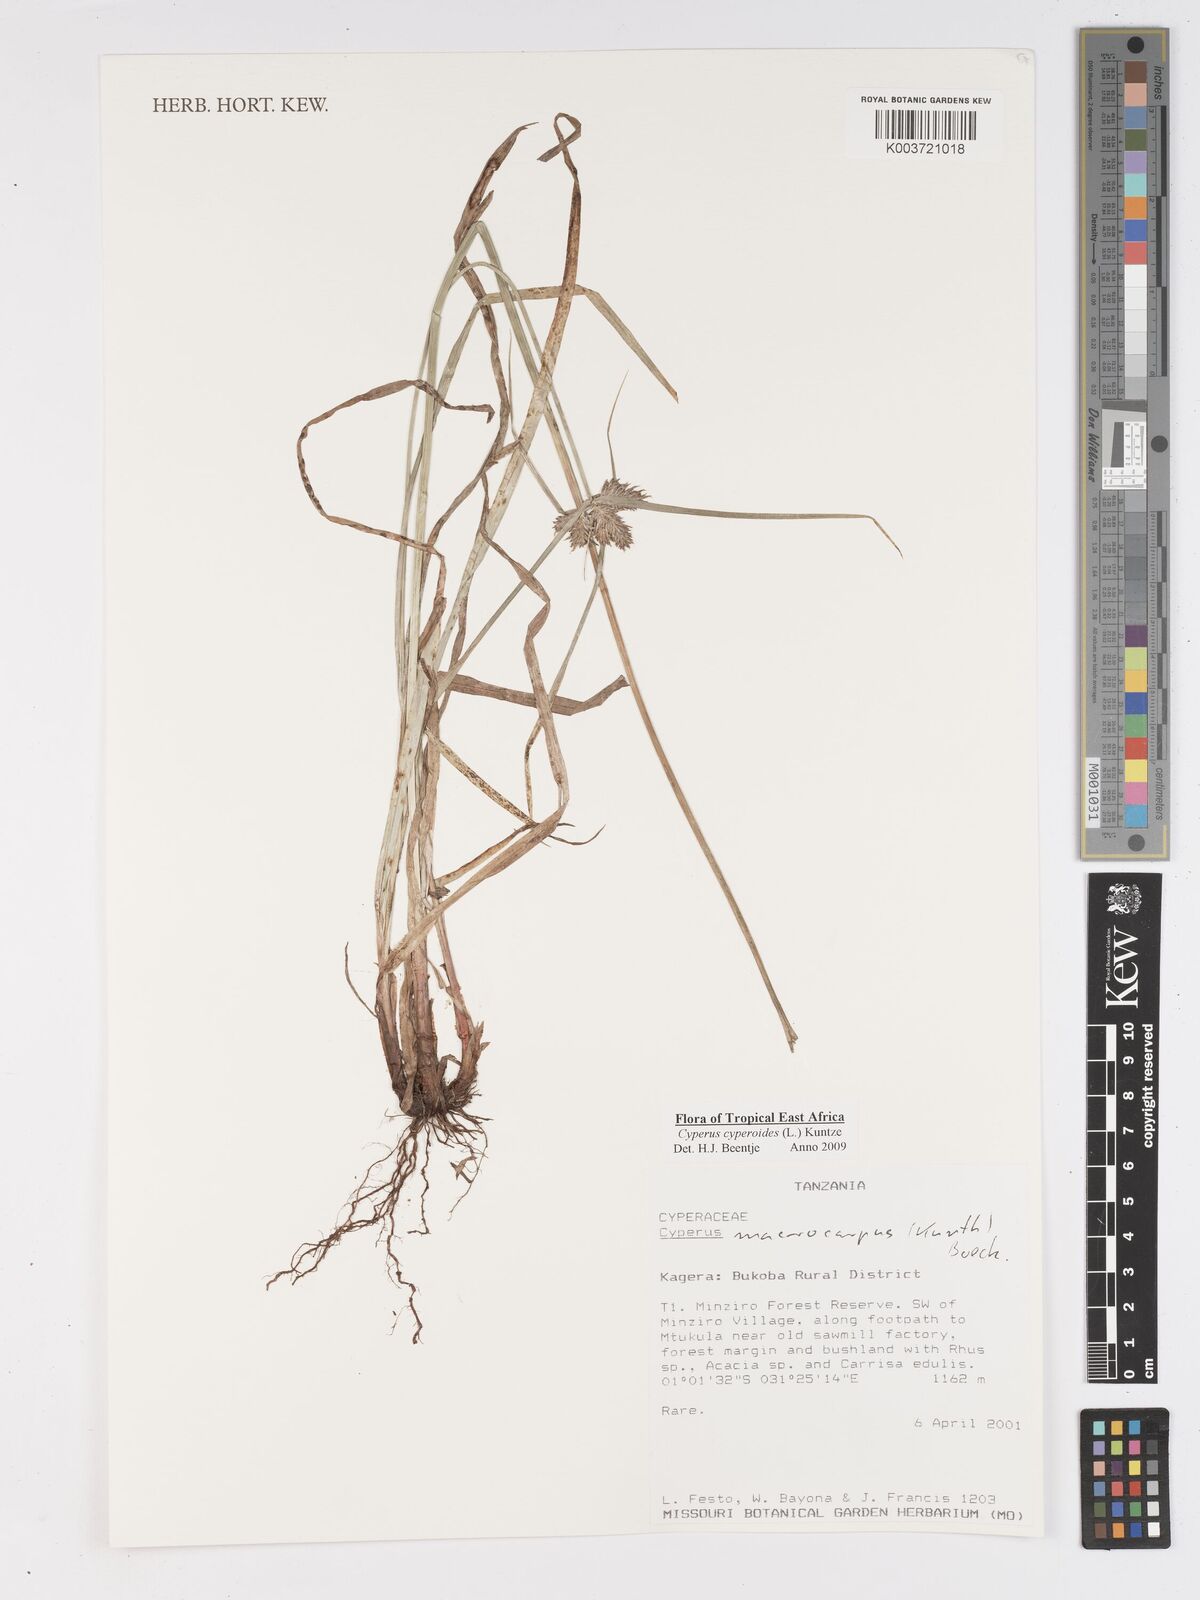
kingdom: Plantae
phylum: Tracheophyta
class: Liliopsida
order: Poales
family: Cyperaceae
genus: Cyperus
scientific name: Cyperus cyperoides
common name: Pacific island flat sedge
